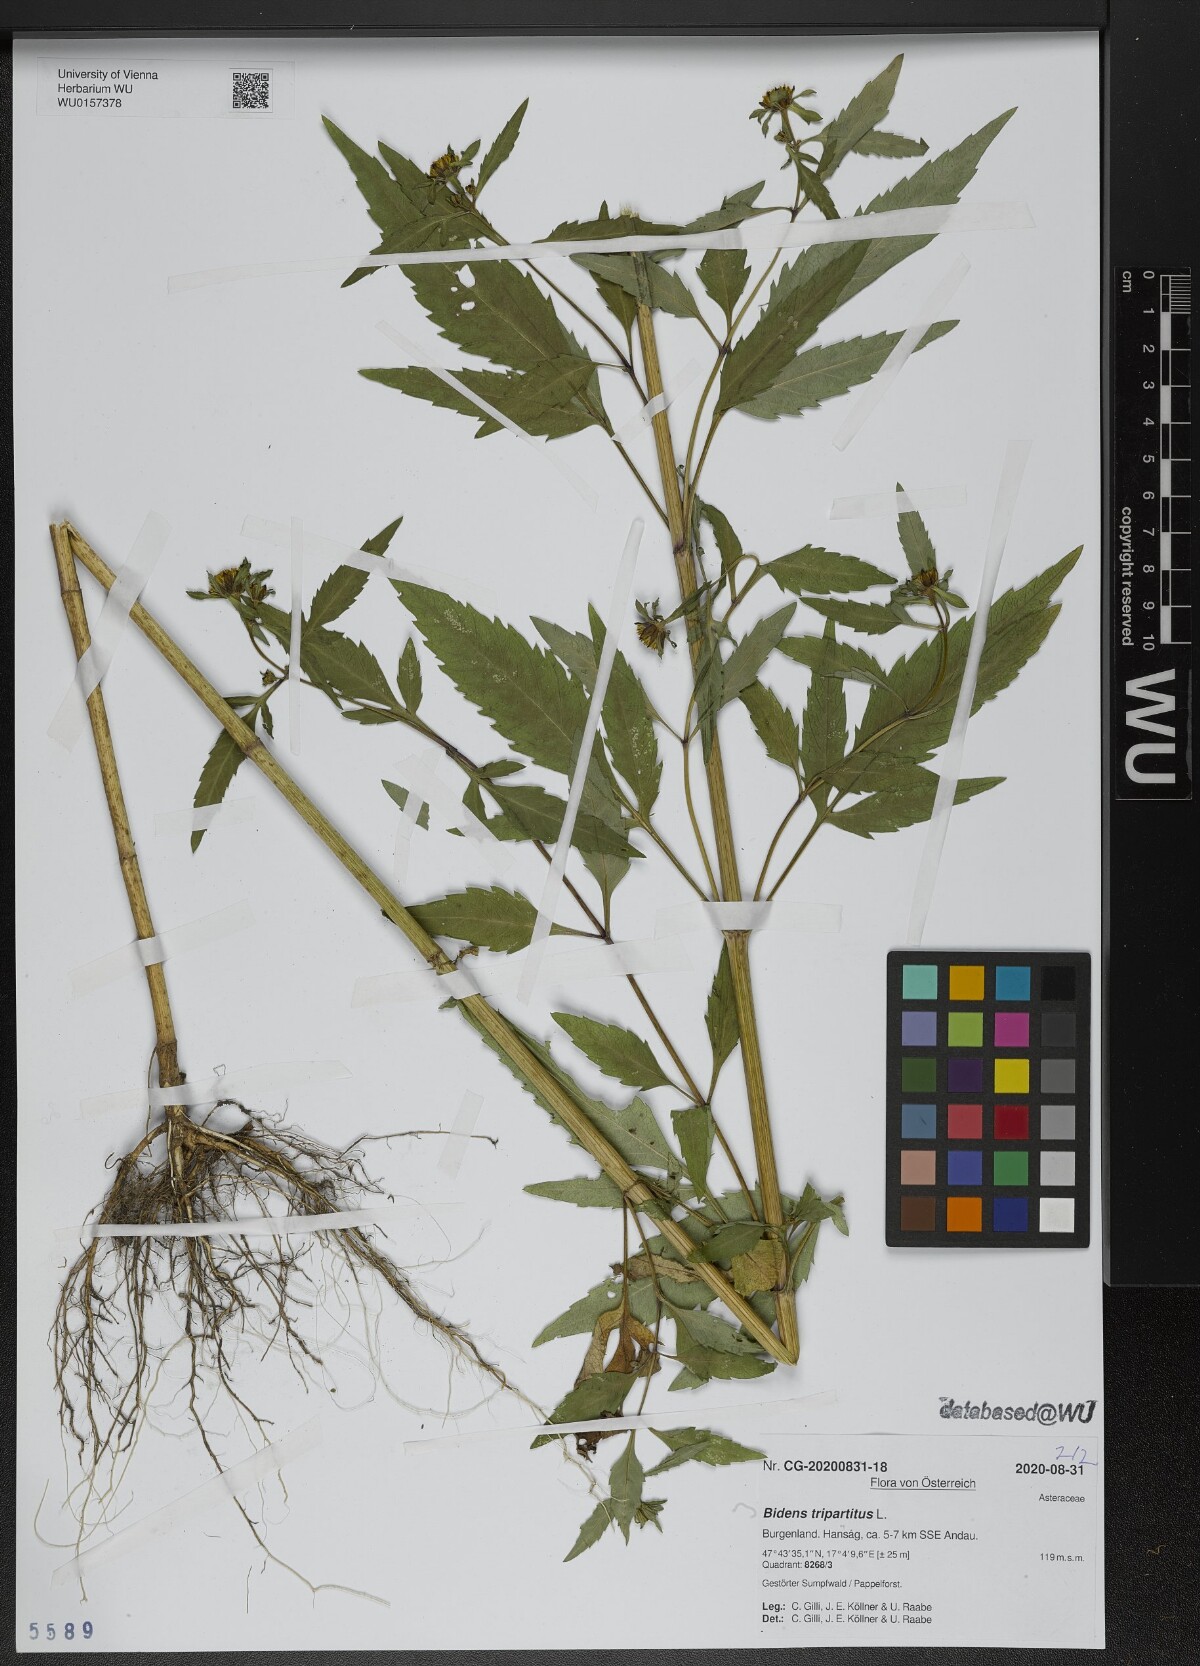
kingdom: Plantae
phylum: Tracheophyta
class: Magnoliopsida
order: Asterales
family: Asteraceae
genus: Bidens
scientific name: Bidens tripartita
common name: Trifid bur-marigold
